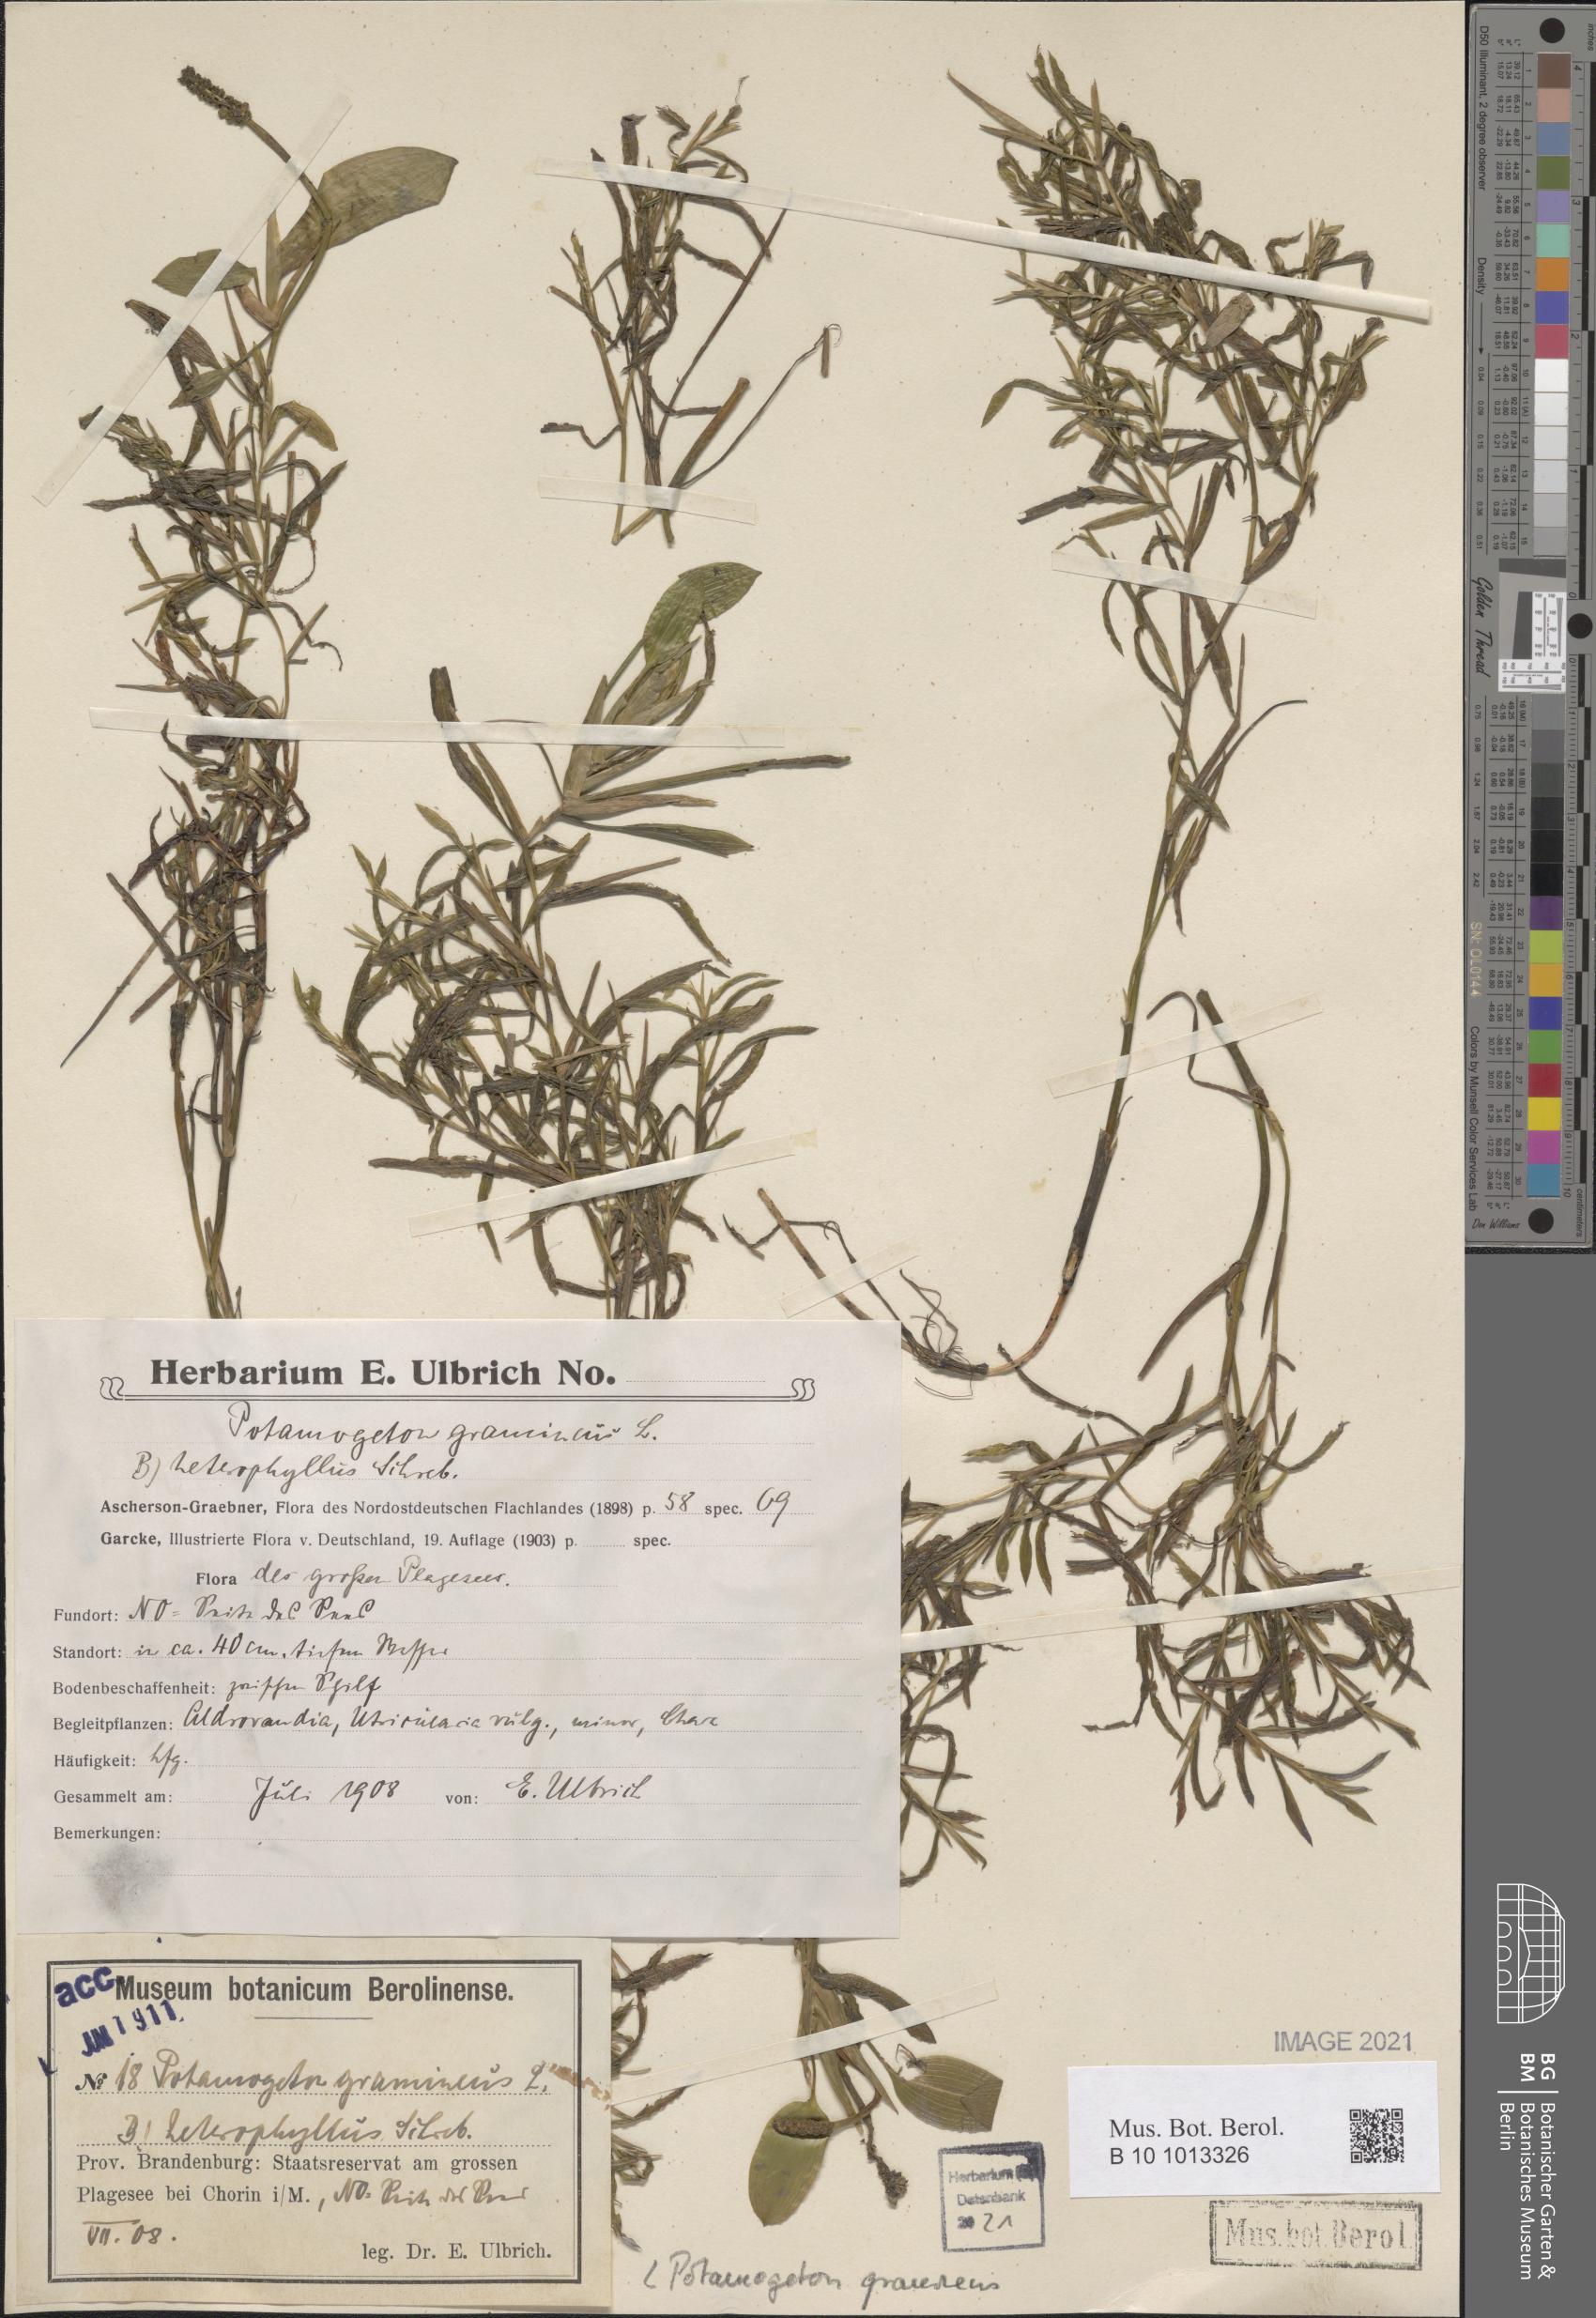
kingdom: Plantae
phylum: Tracheophyta
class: Liliopsida
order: Alismatales
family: Potamogetonaceae
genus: Potamogeton
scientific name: Potamogeton gramineus
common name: Various-leaved pondweed
